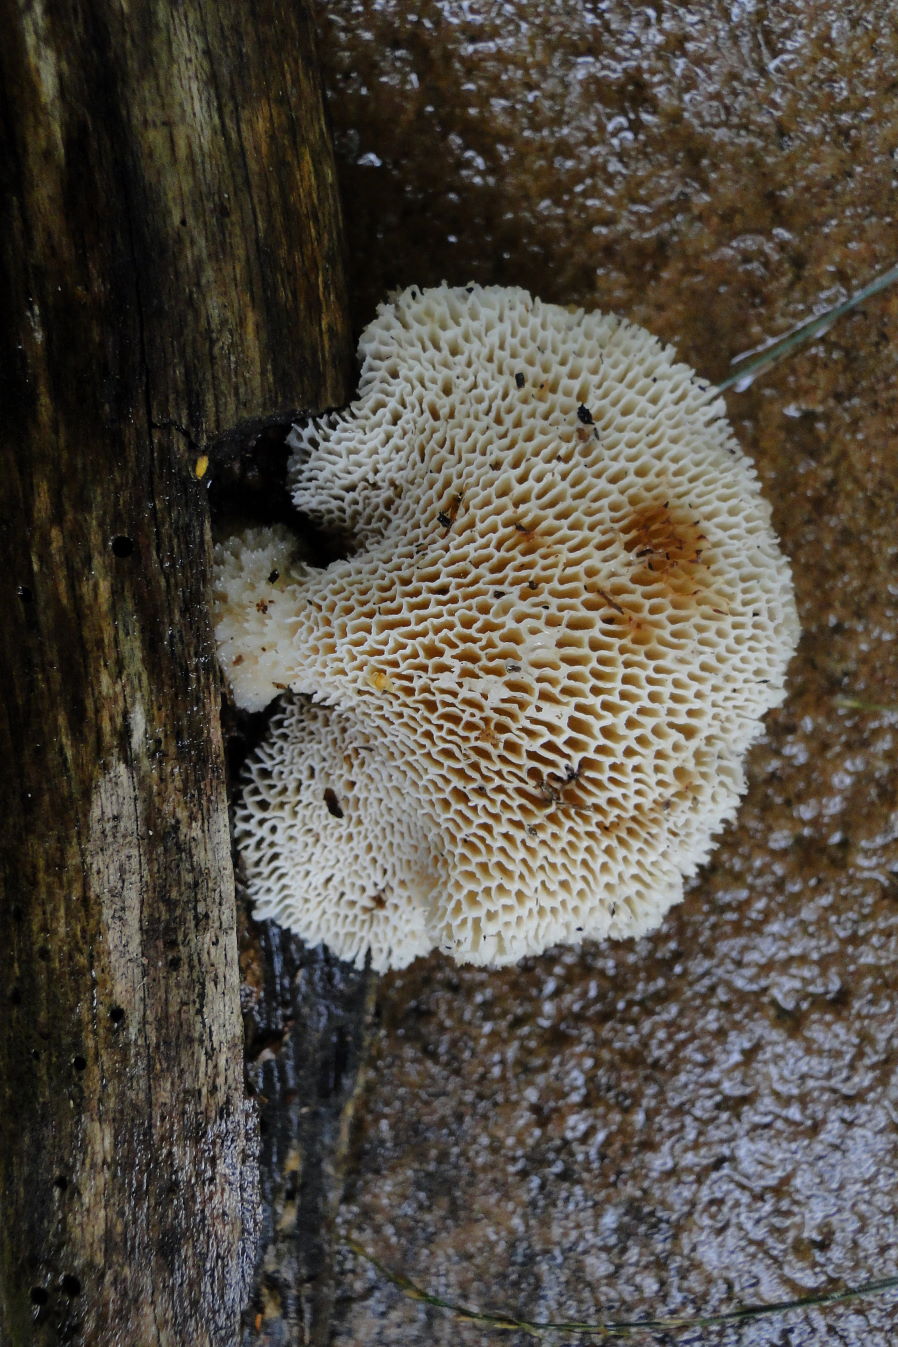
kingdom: Fungi
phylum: Basidiomycota
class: Agaricomycetes
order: Polyporales
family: Polyporaceae
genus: Polyporus
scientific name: Polyporus tuberaster
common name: knoldet stilkporesvamp
